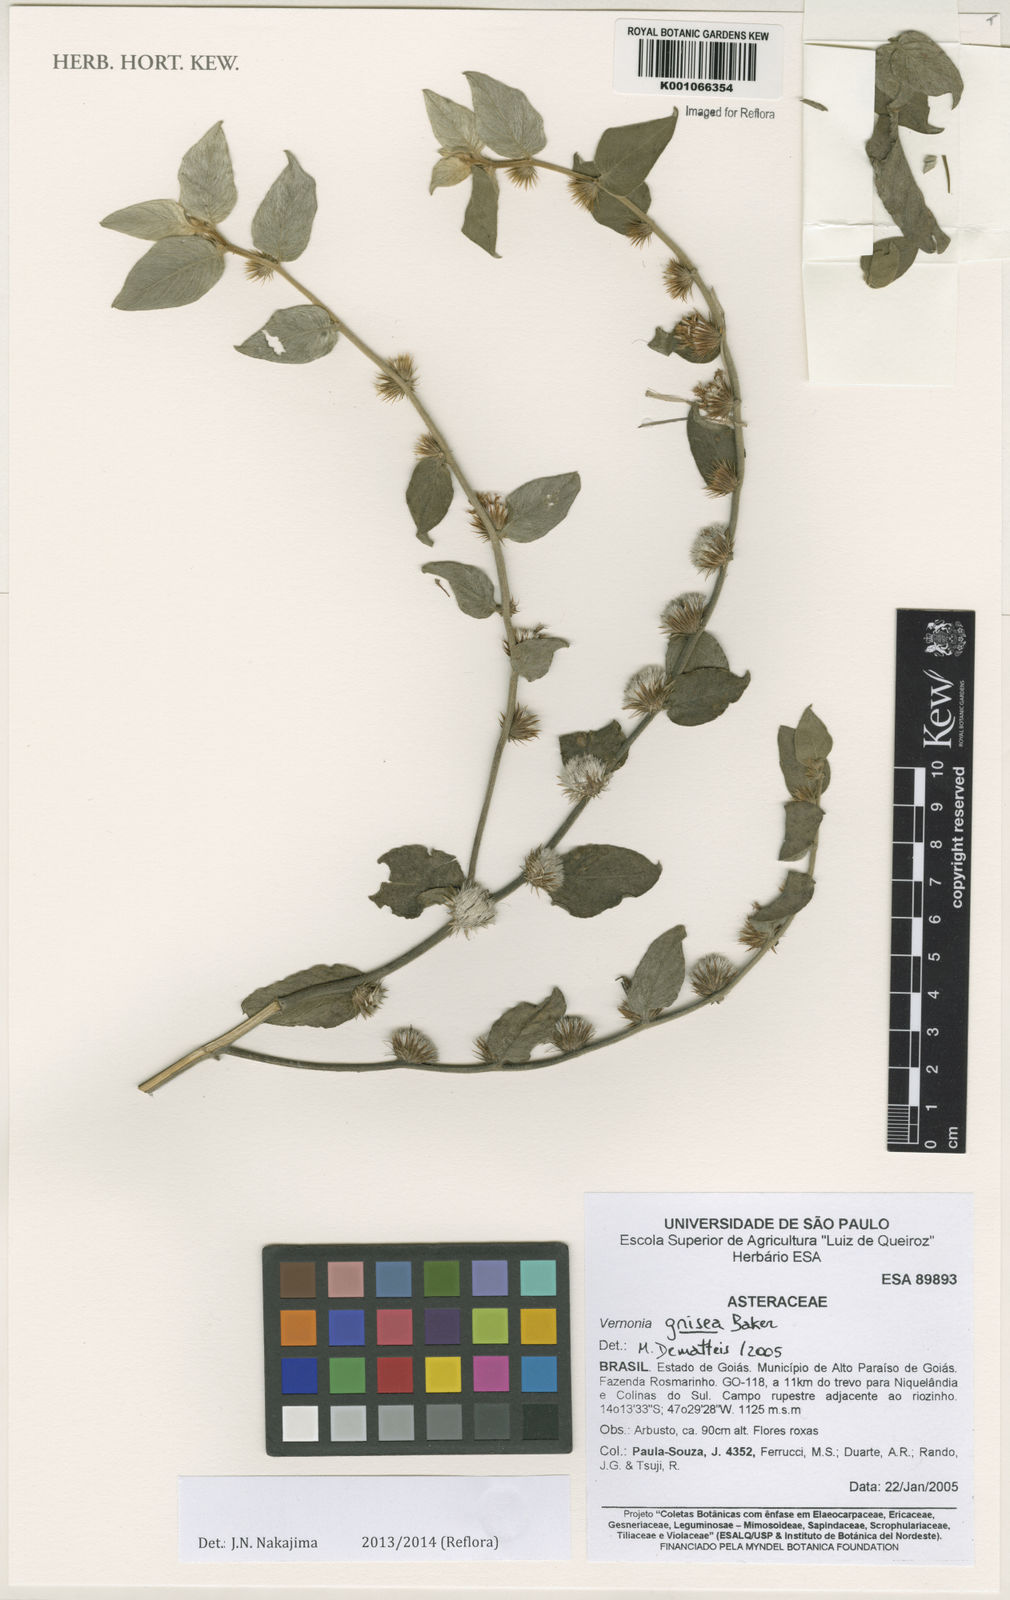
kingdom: Plantae
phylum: Tracheophyta
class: Magnoliopsida
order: Asterales
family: Asteraceae
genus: Lepidaploa
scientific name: Lepidaploa aurea
